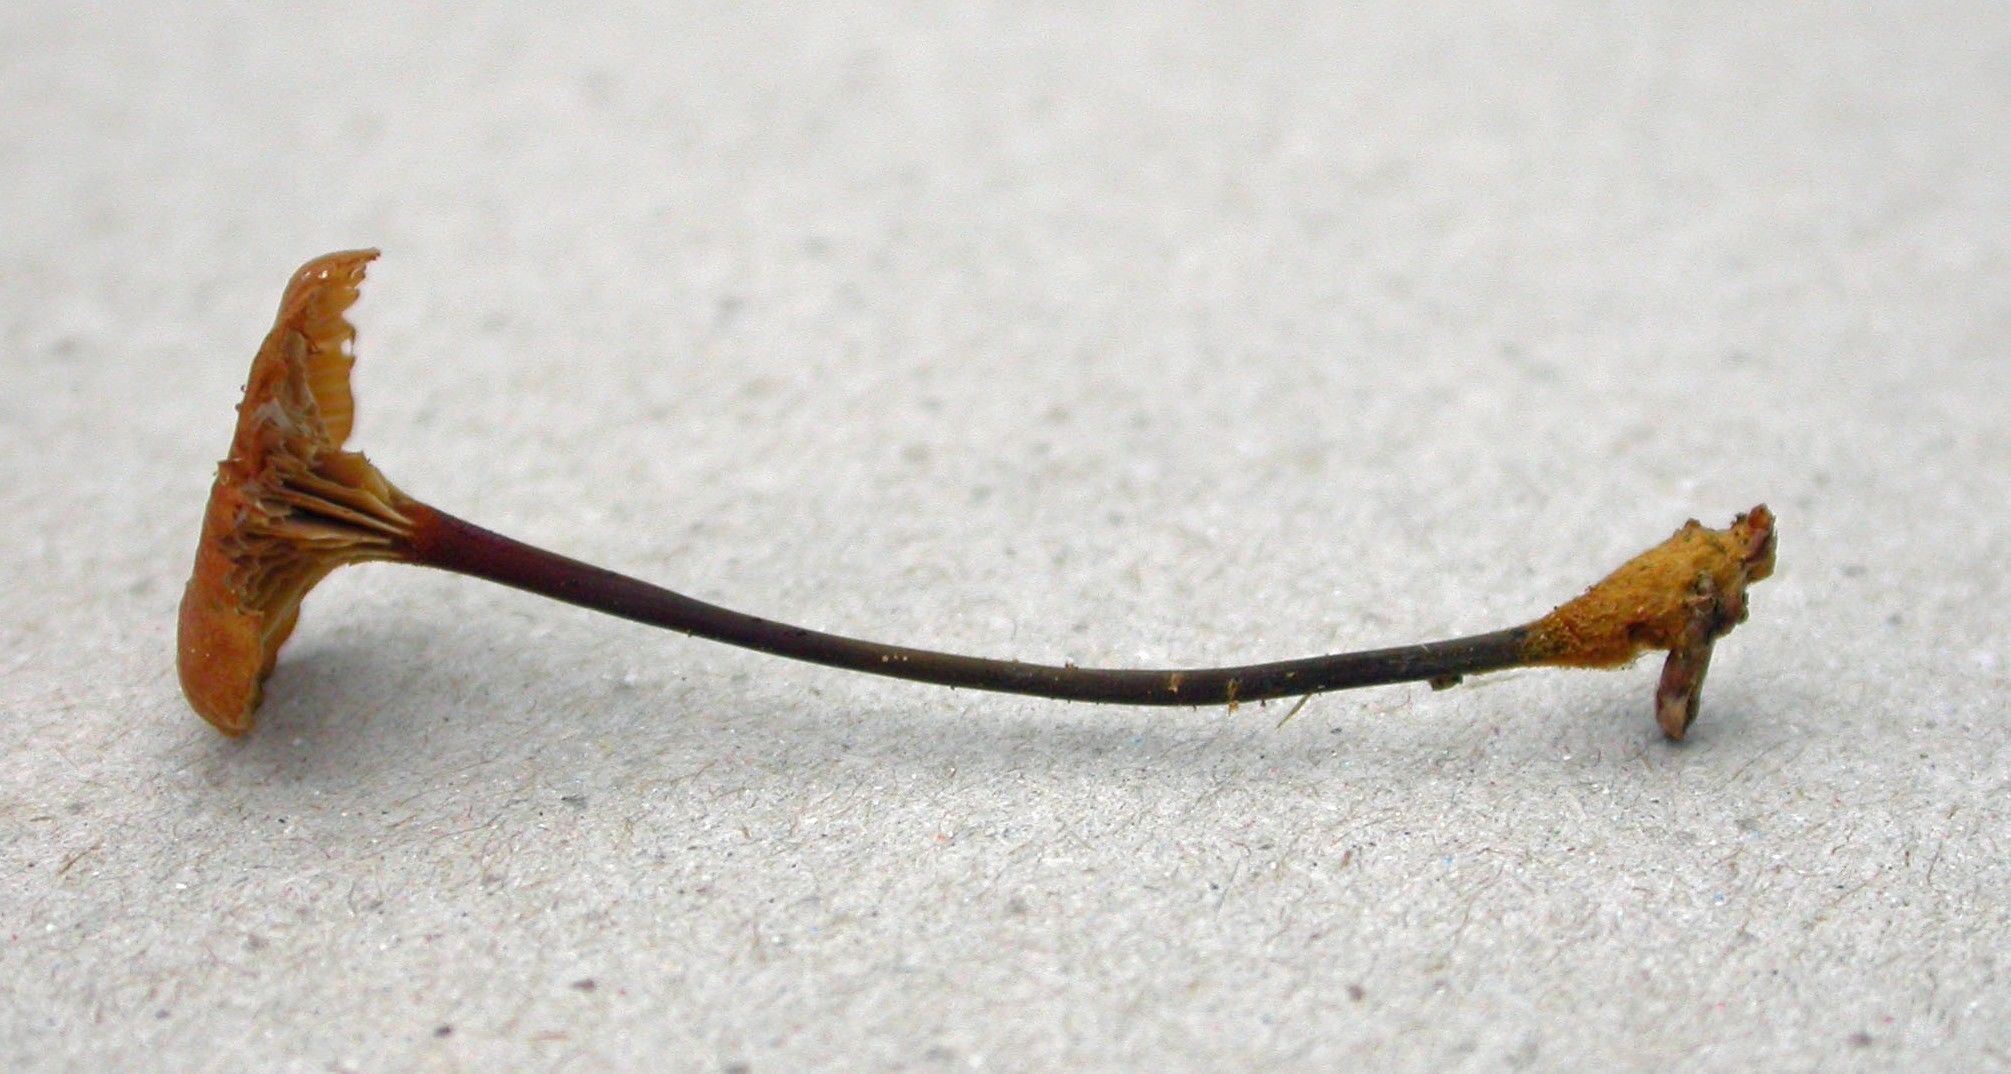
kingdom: Fungi
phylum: Basidiomycota
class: Agaricomycetes
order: Agaricales
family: Mycenaceae
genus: Xeromphalina
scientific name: Xeromphalina cornui
